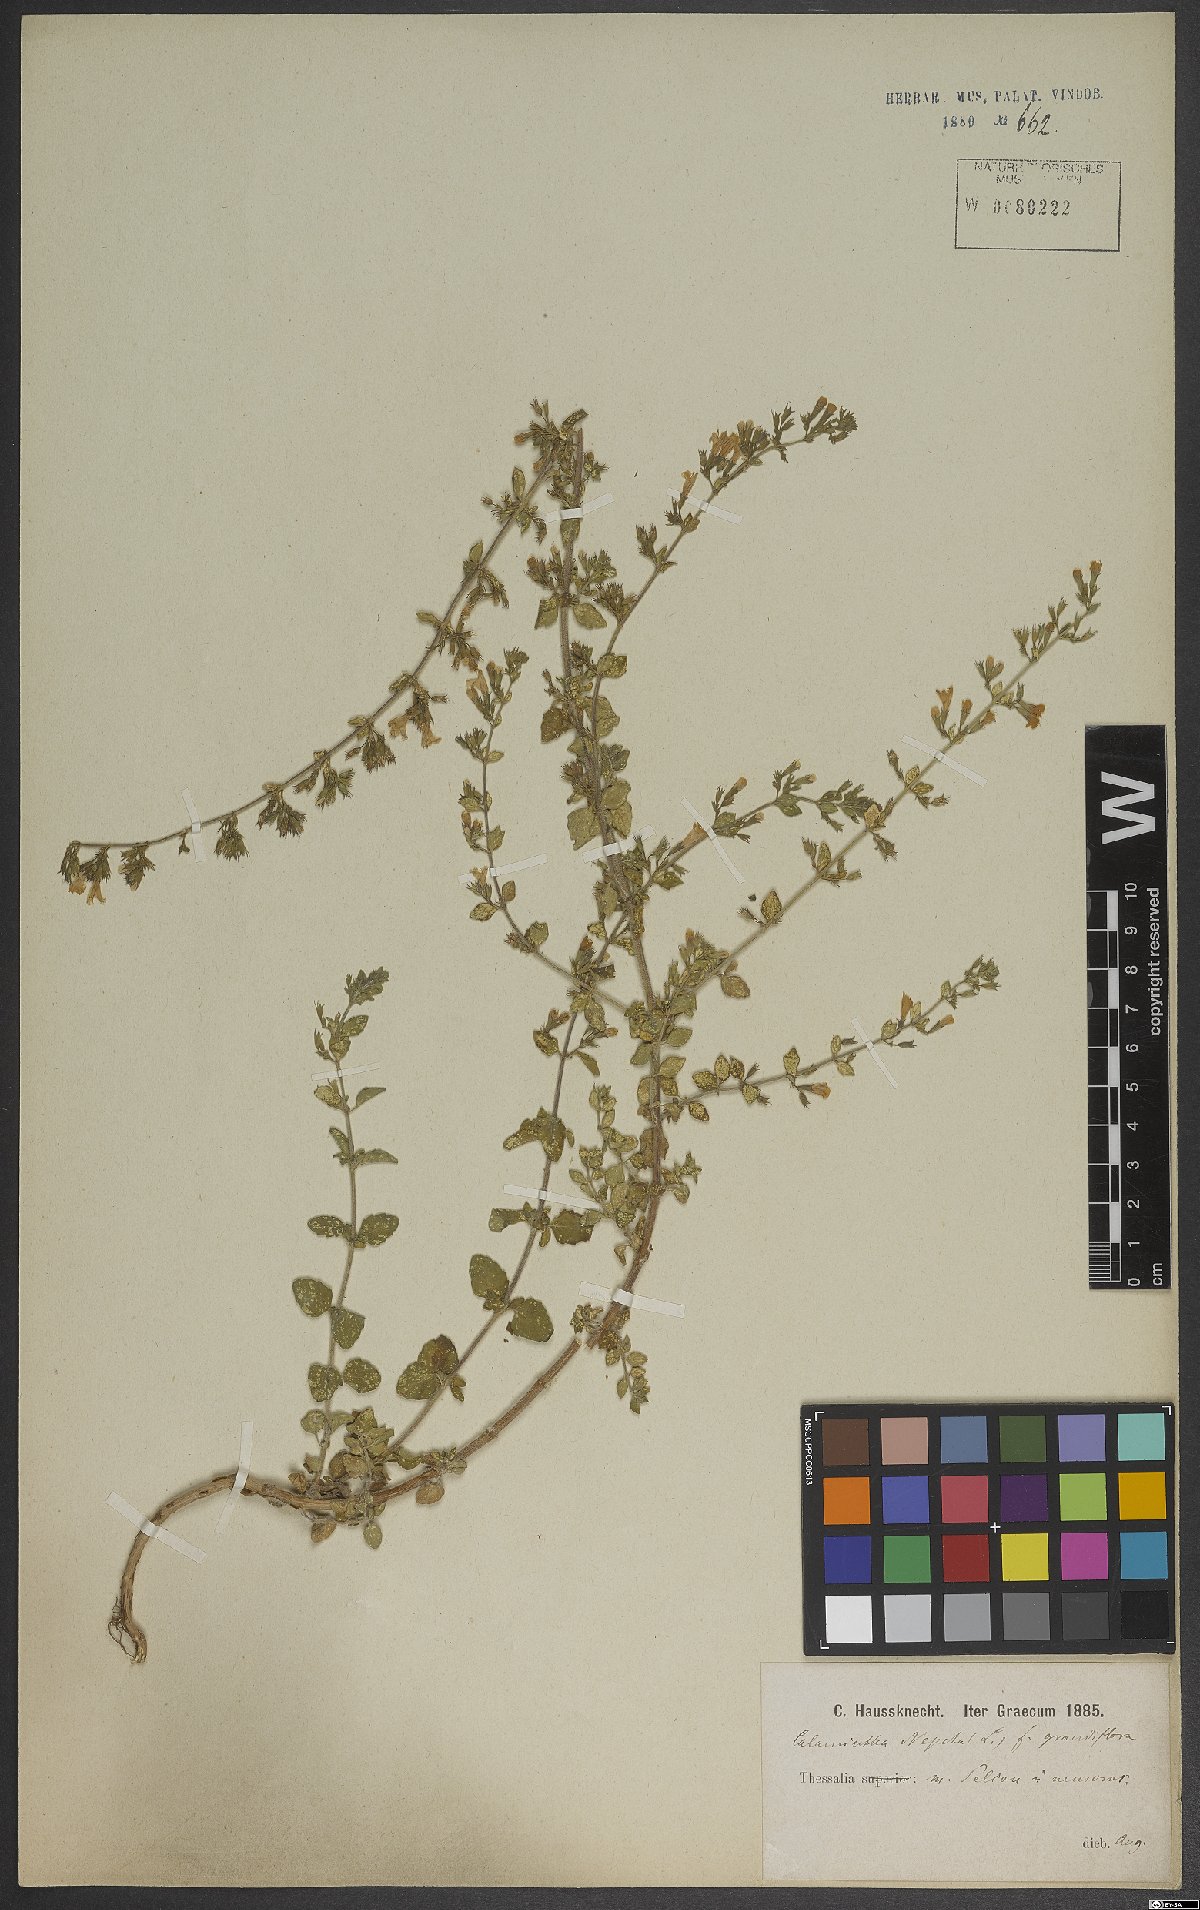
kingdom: Plantae
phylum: Tracheophyta
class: Magnoliopsida
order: Lamiales
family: Lamiaceae
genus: Clinopodium
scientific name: Clinopodium nepeta
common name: Lesser calamint
